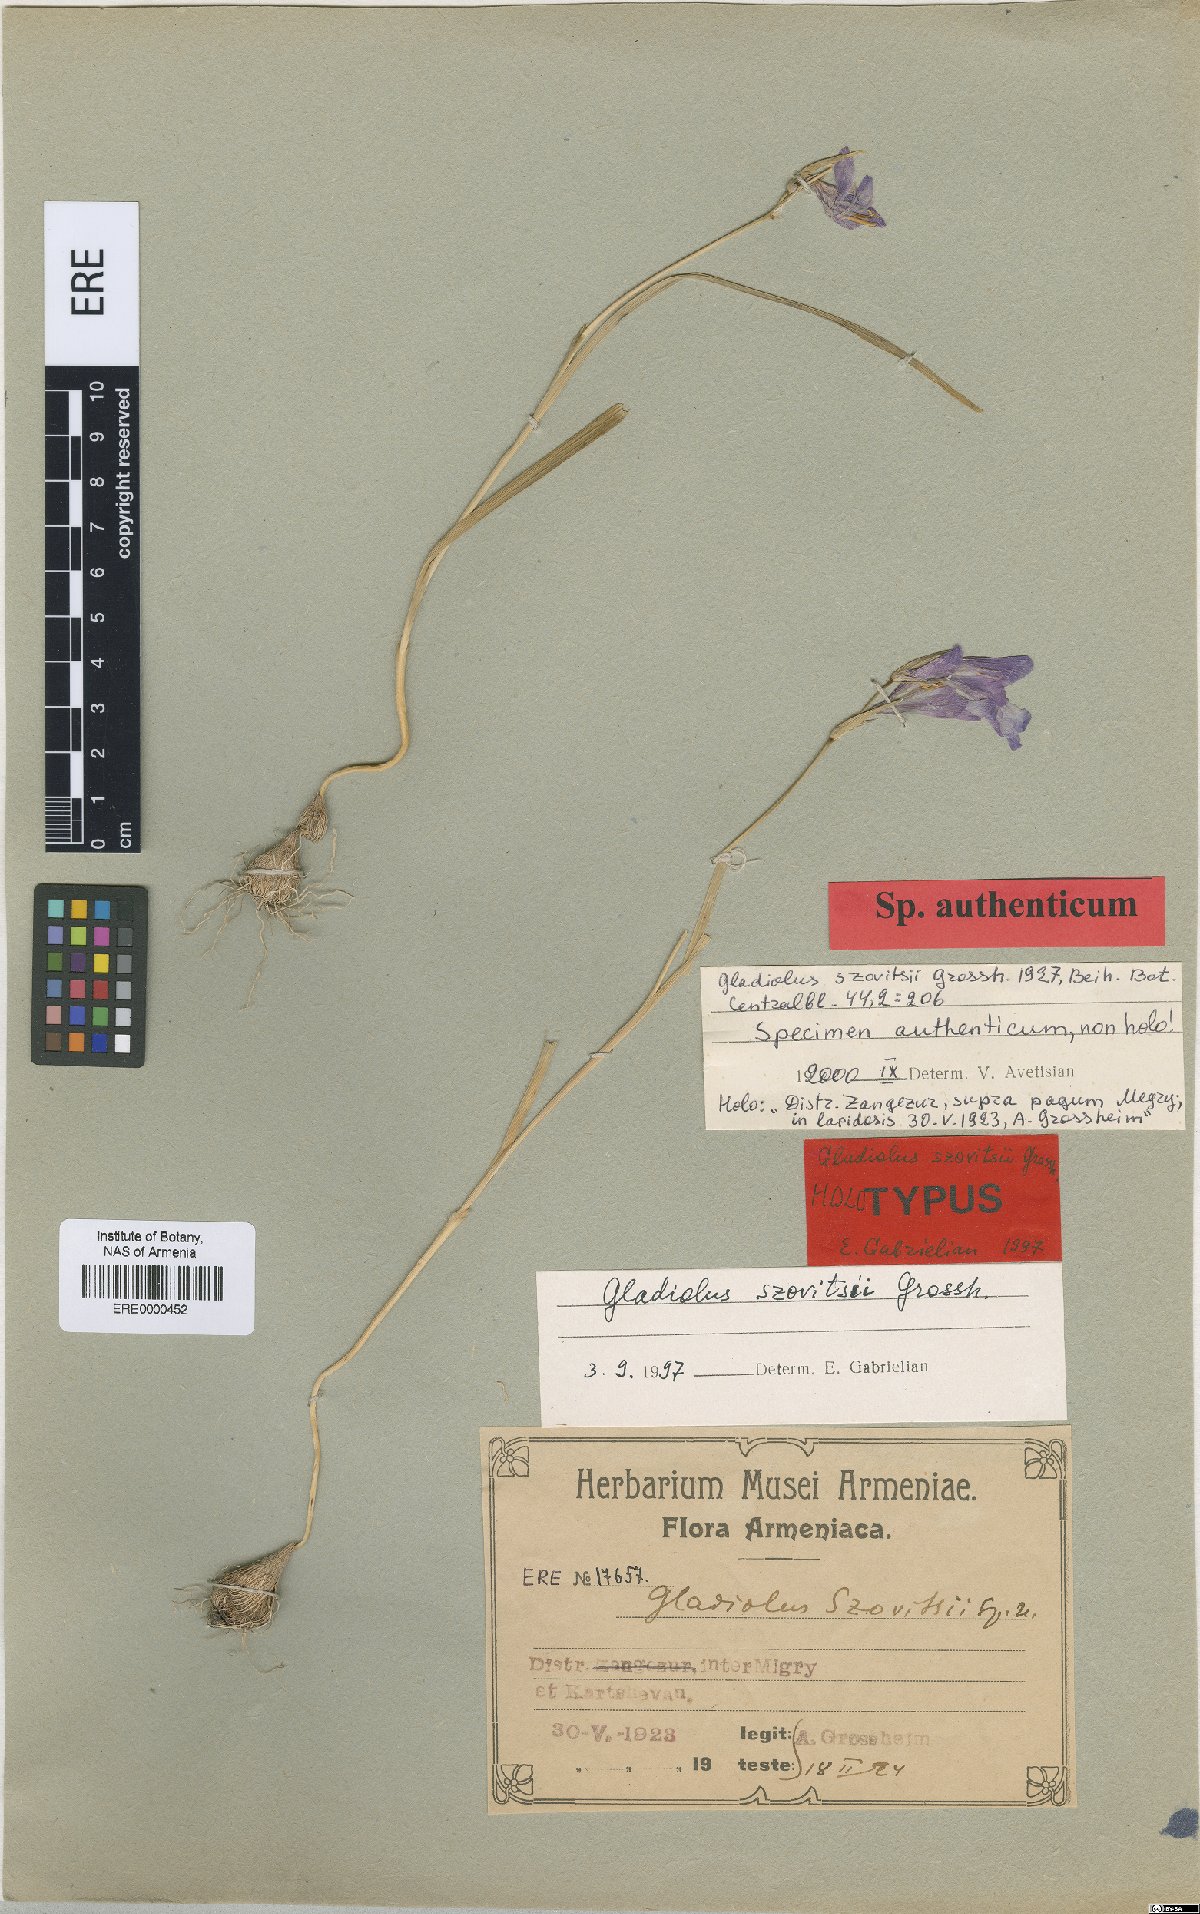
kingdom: Plantae
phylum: Tracheophyta
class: Liliopsida
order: Asparagales
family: Iridaceae
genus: Gladiolus
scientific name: Gladiolus szovitsii
